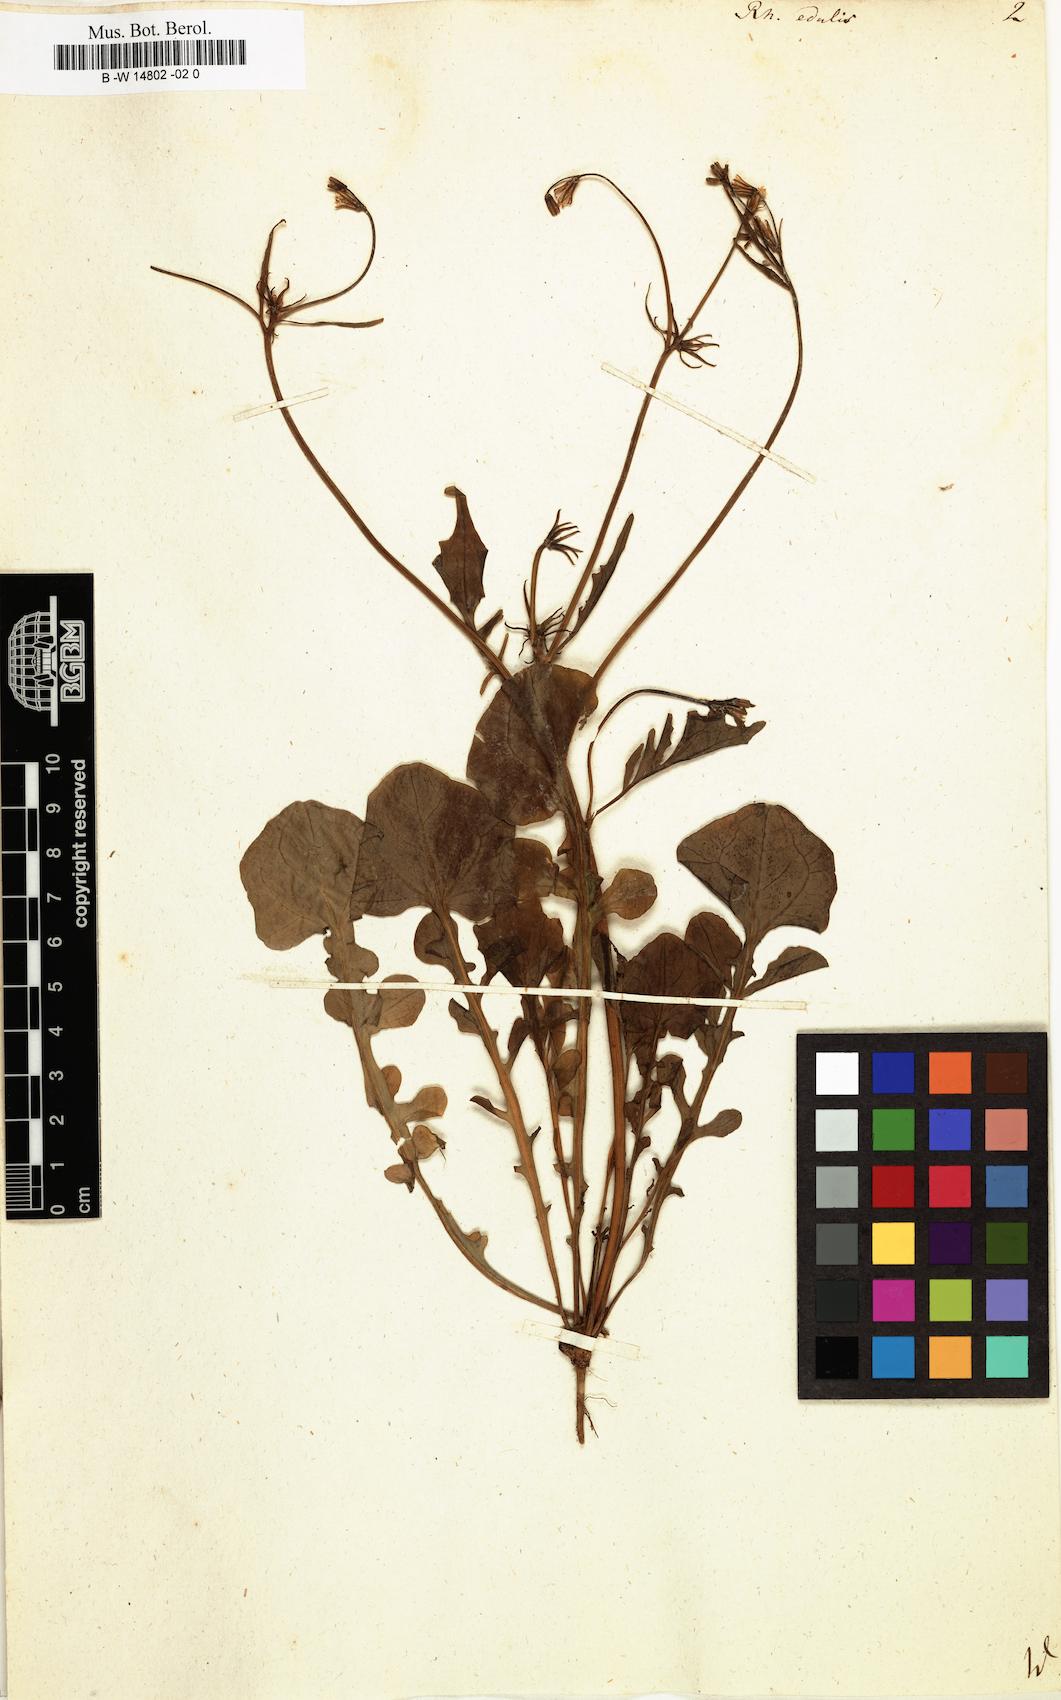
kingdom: Plantae
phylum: Tracheophyta
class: Magnoliopsida
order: Asterales
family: Asteraceae
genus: Rhagadiolus
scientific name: Rhagadiolus edulis
